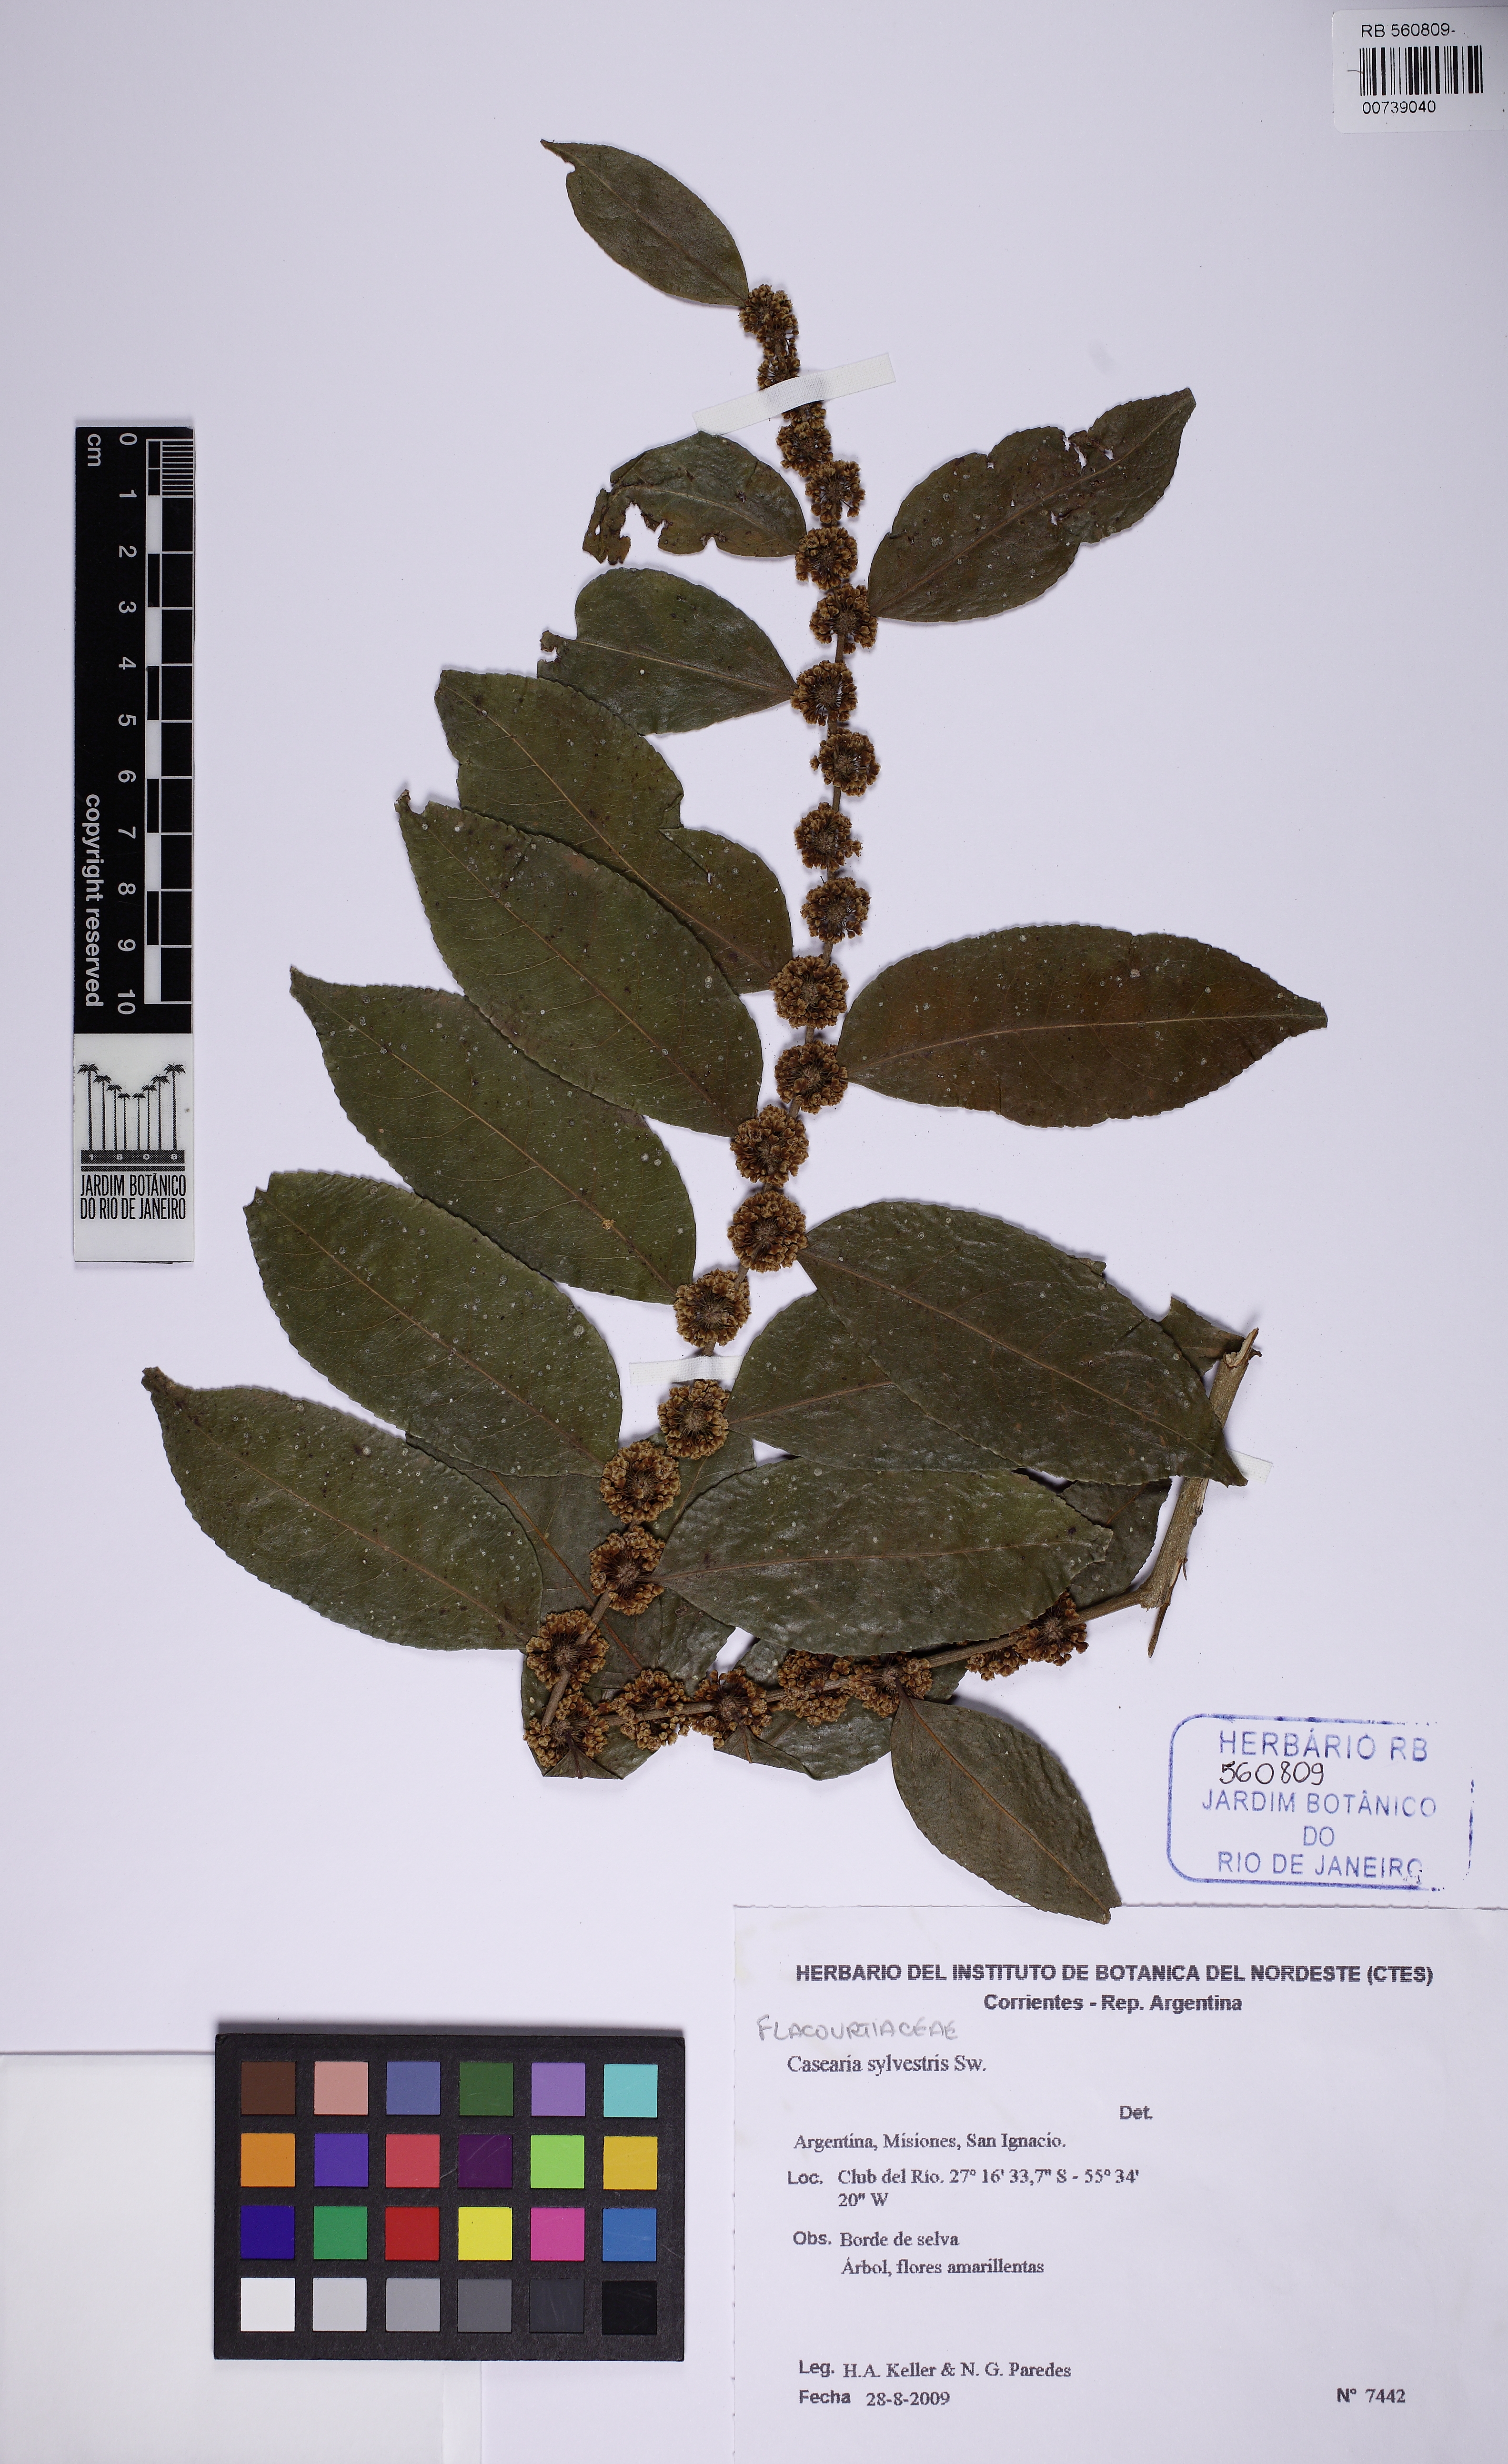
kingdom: Plantae
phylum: Tracheophyta
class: Magnoliopsida
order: Malpighiales
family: Salicaceae
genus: Casearia
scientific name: Casearia sylvestris
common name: Wild sage
